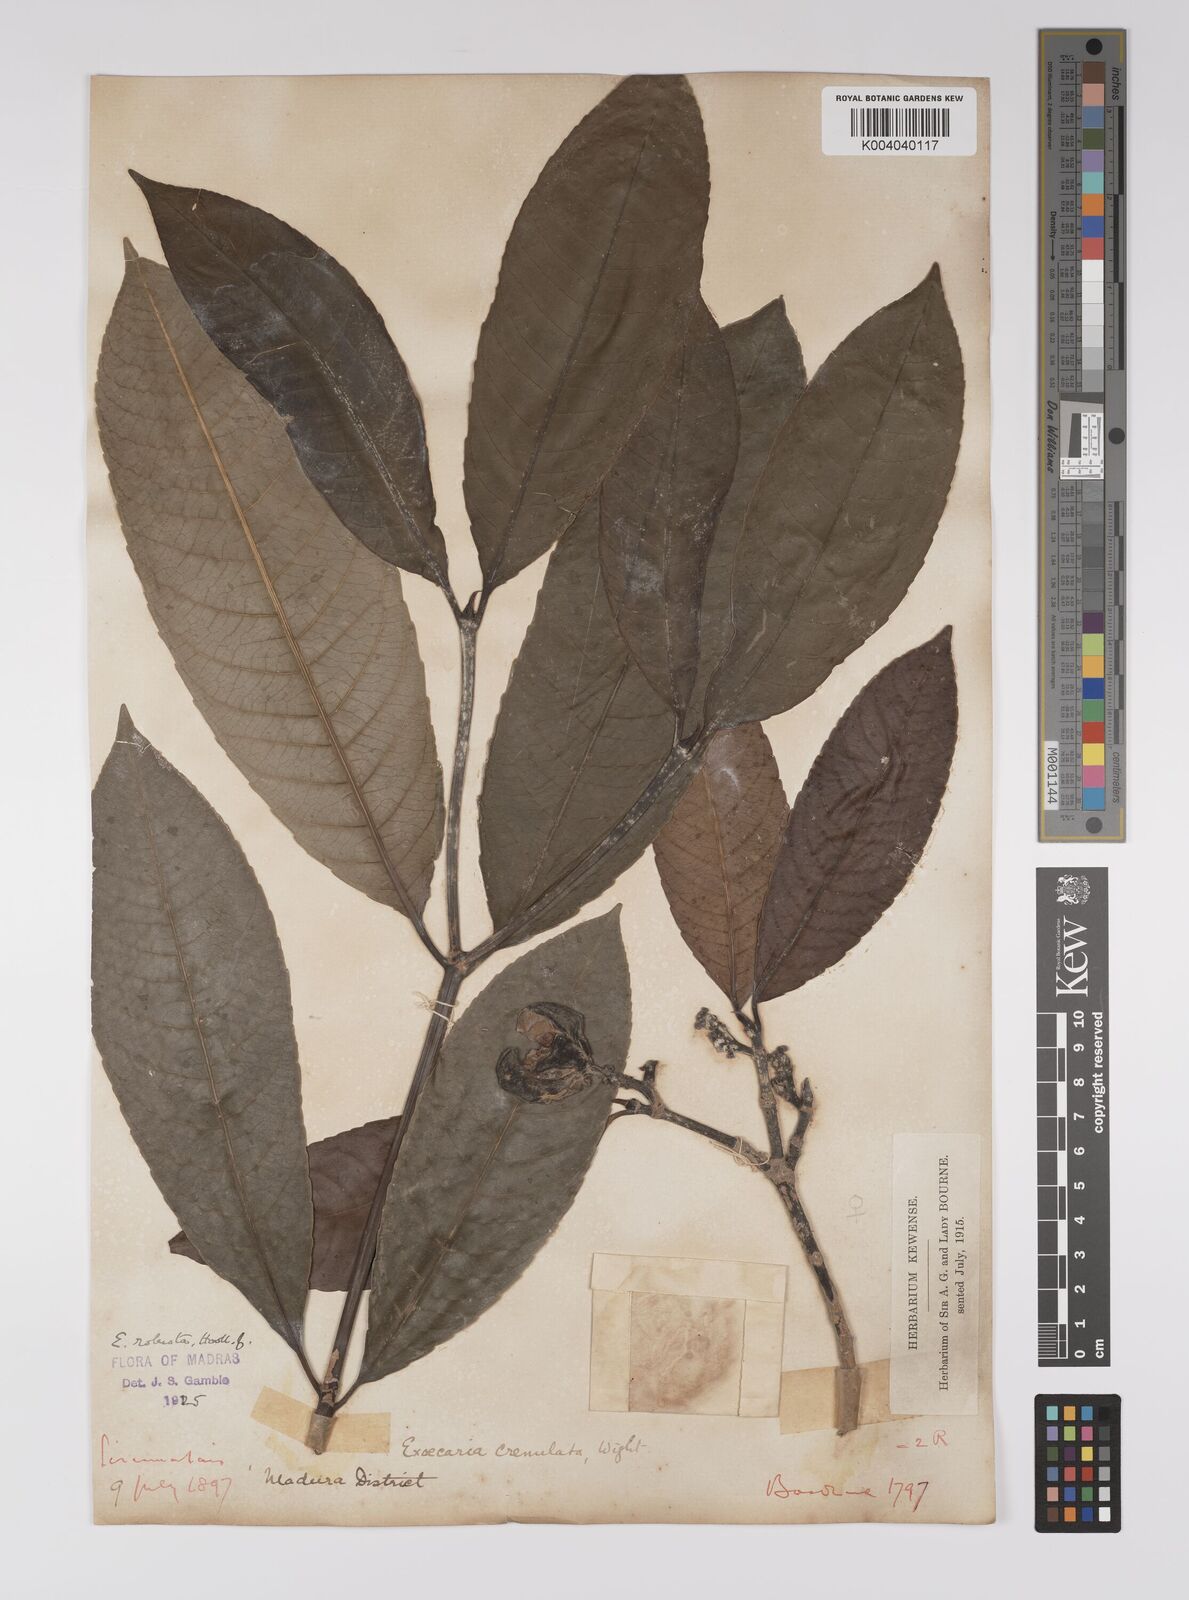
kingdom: Plantae
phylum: Tracheophyta
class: Magnoliopsida
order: Malpighiales
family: Euphorbiaceae
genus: Excoecaria
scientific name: Excoecaria oppositifolia
